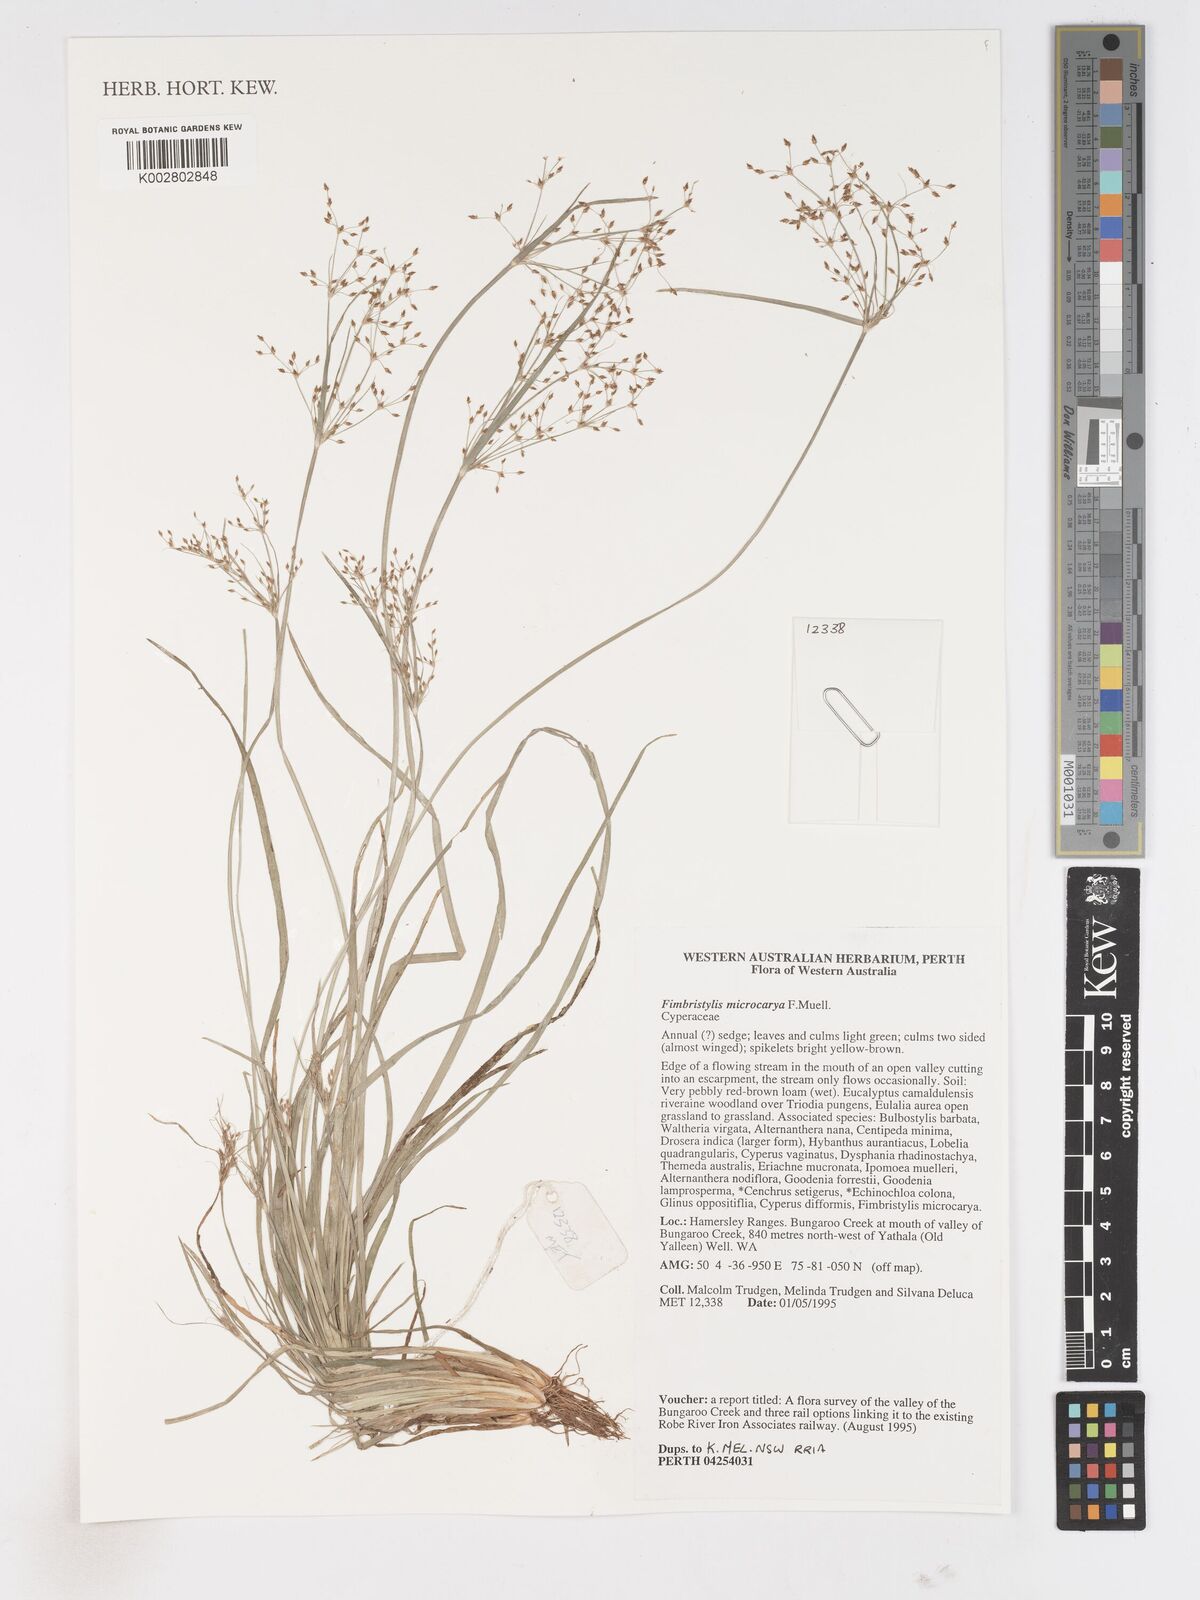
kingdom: Plantae
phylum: Tracheophyta
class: Liliopsida
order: Poales
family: Cyperaceae
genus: Fimbristylis
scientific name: Fimbristylis microcarya
